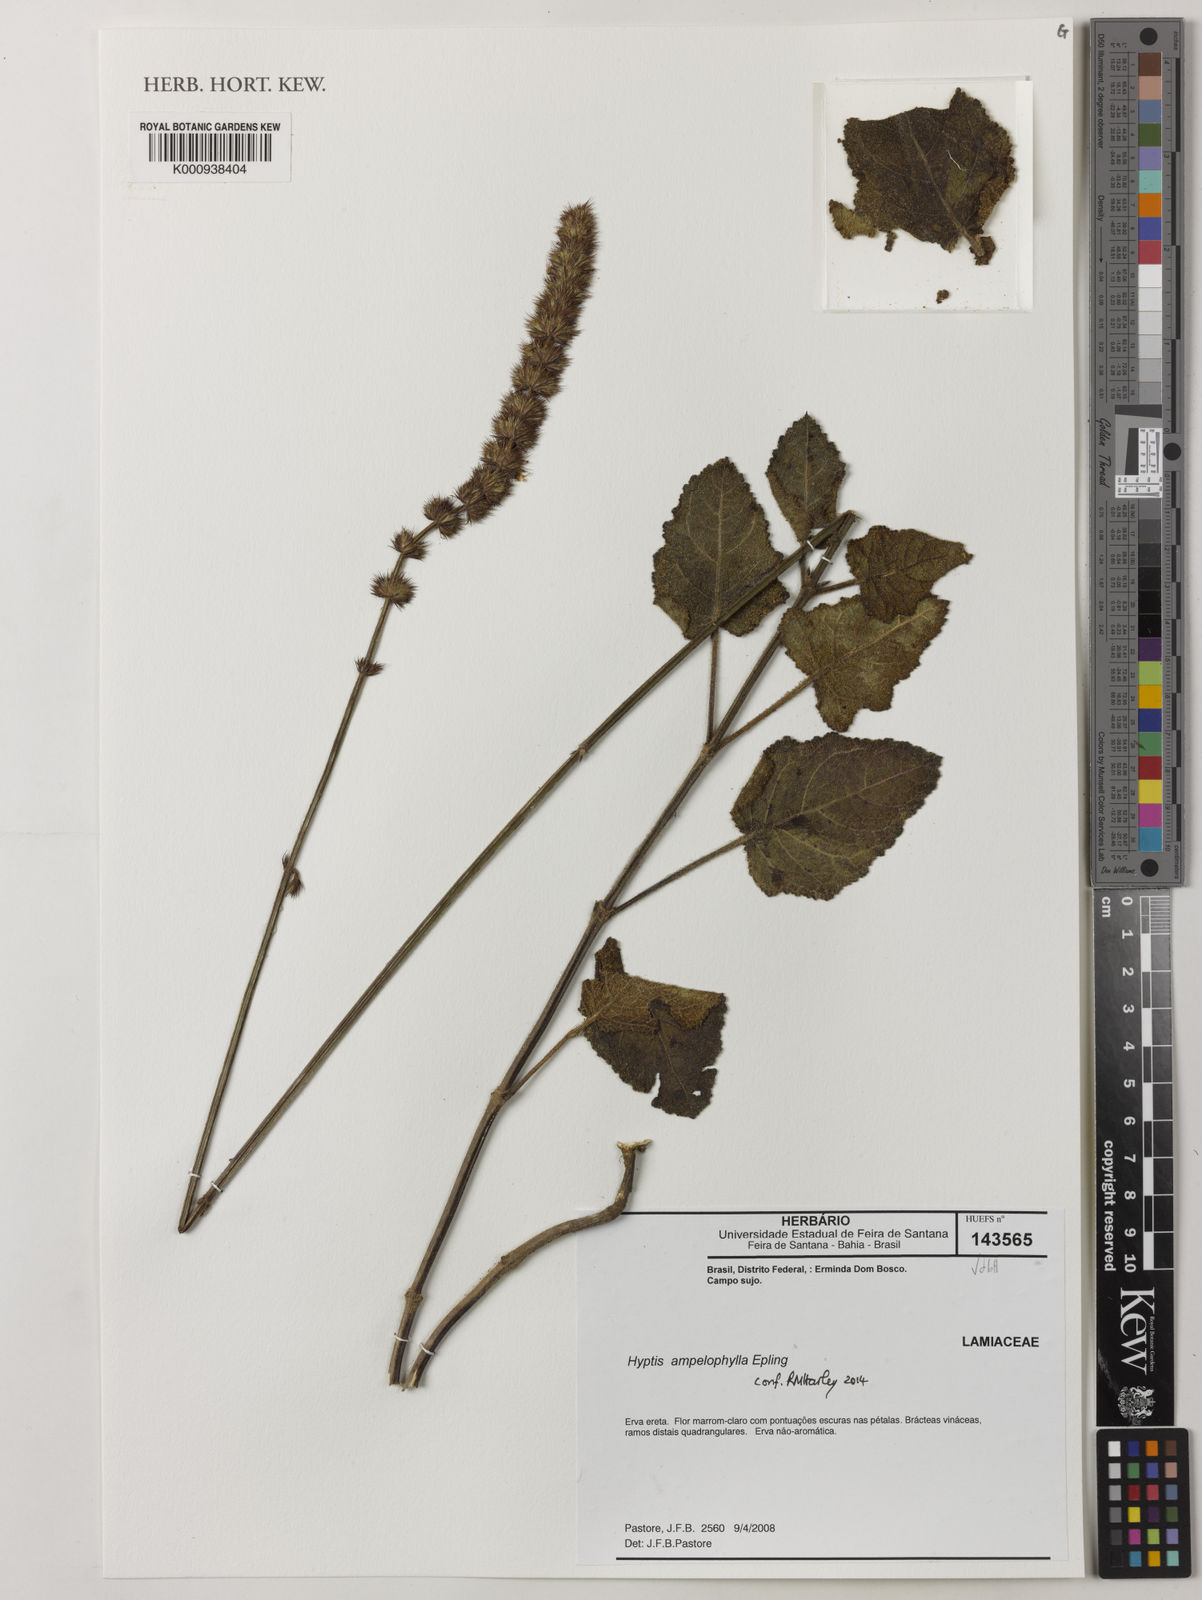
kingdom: Plantae
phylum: Tracheophyta
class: Magnoliopsida
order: Lamiales
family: Lamiaceae
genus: Gymneia
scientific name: Gymneia ampelophylla
